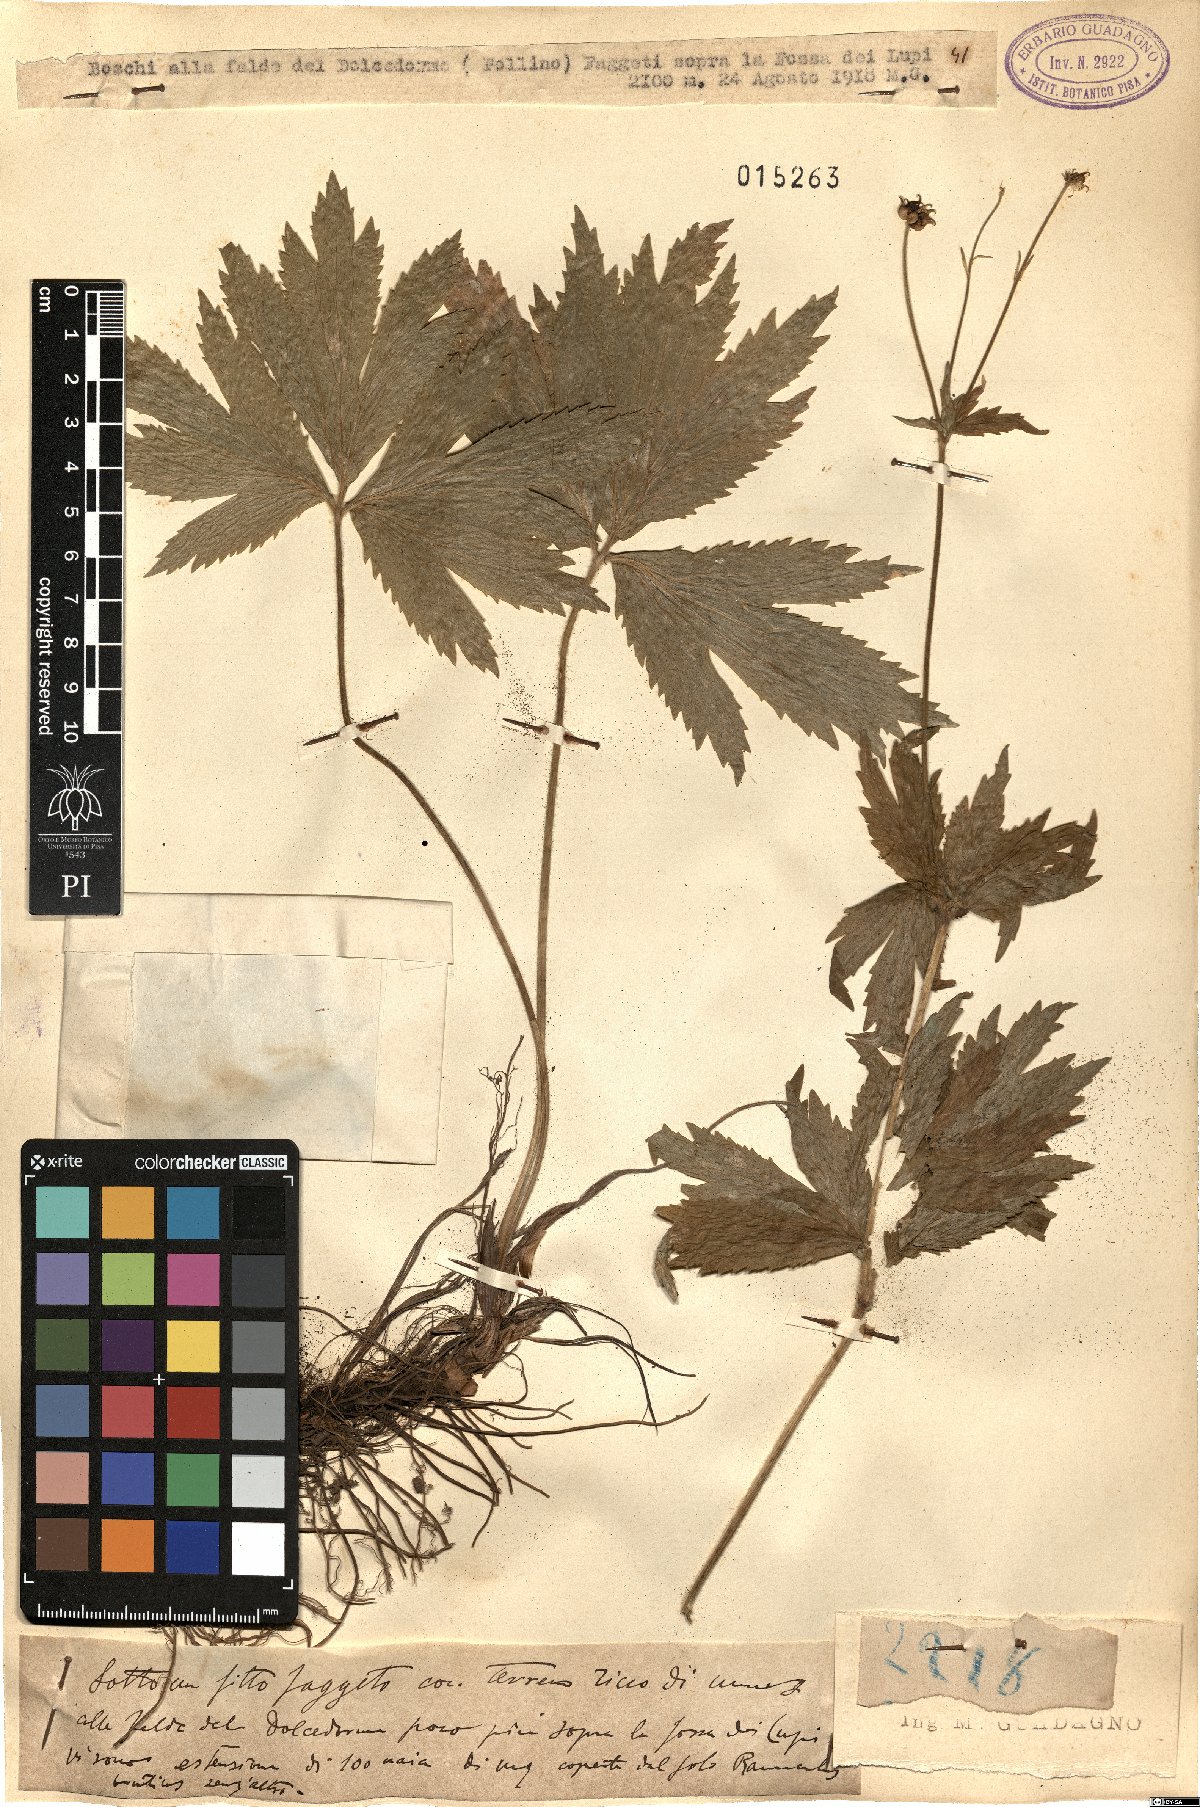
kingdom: Plantae
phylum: Tracheophyta
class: Magnoliopsida
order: Ranunculales
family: Ranunculaceae
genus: Ranunculus
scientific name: Ranunculus brutius
